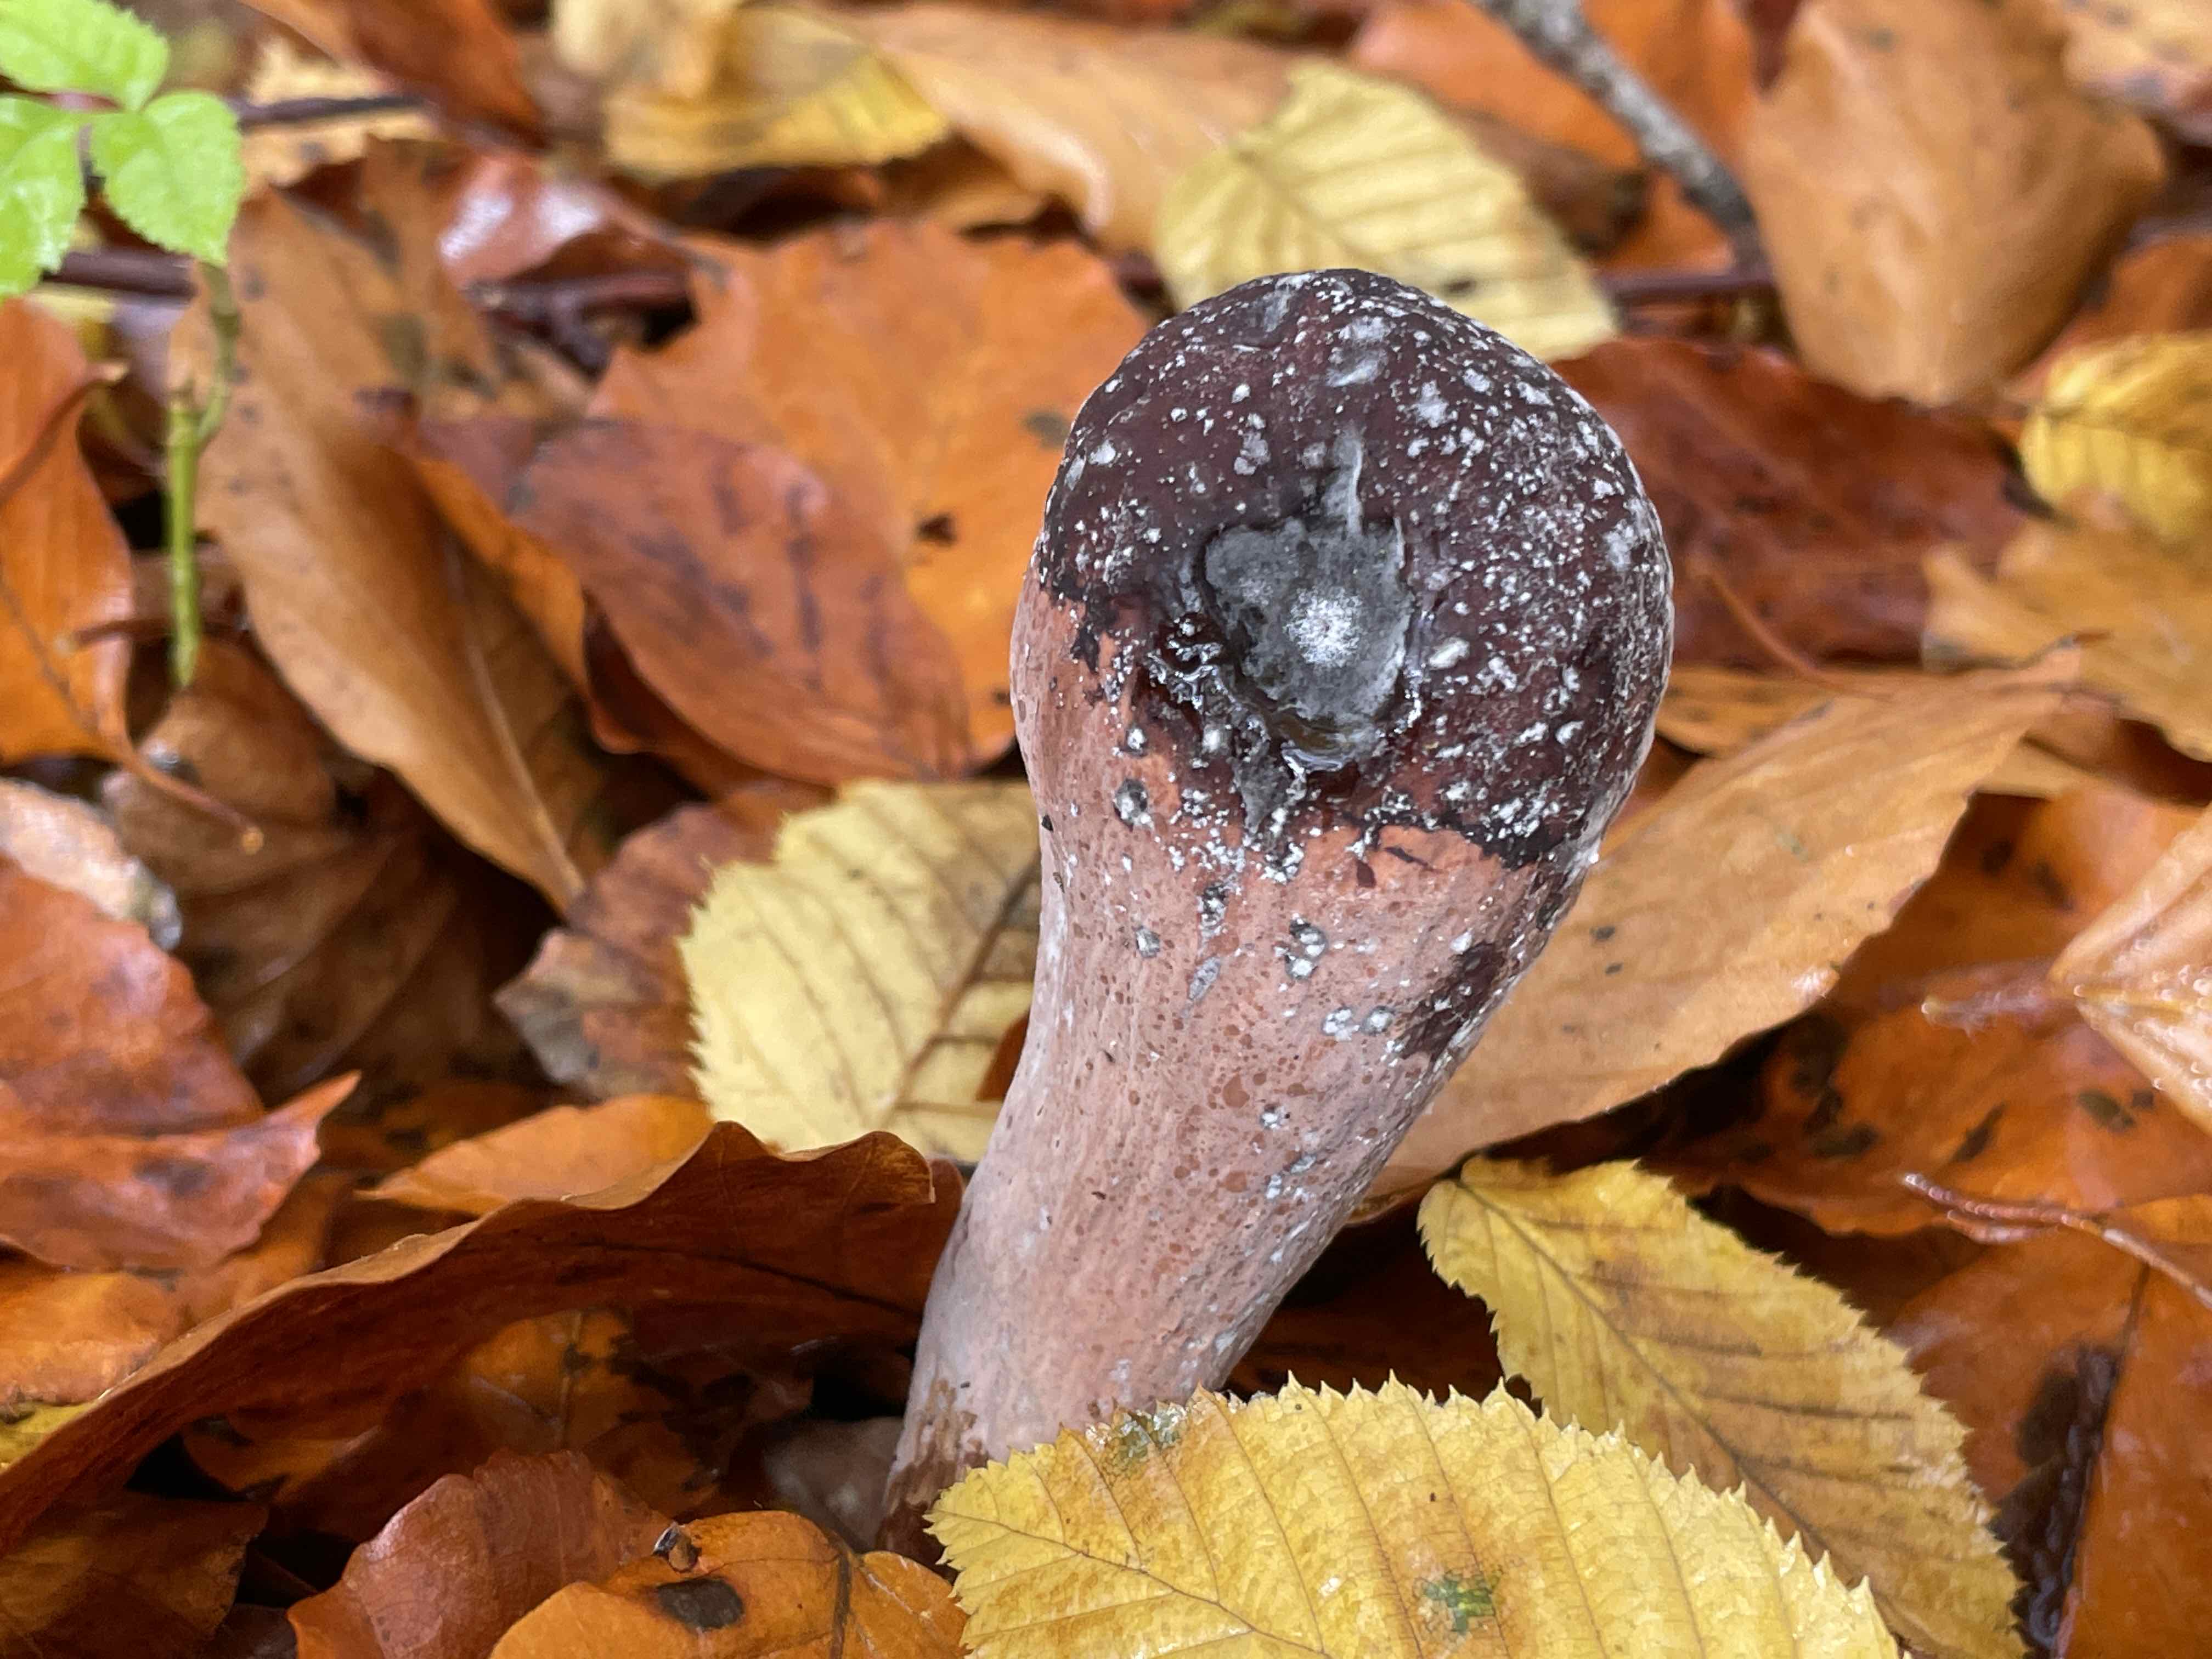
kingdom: Fungi
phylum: Basidiomycota
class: Agaricomycetes
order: Gomphales
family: Clavariadelphaceae
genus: Clavariadelphus
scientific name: Clavariadelphus pistillaris
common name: herkules-kæmpekølle
